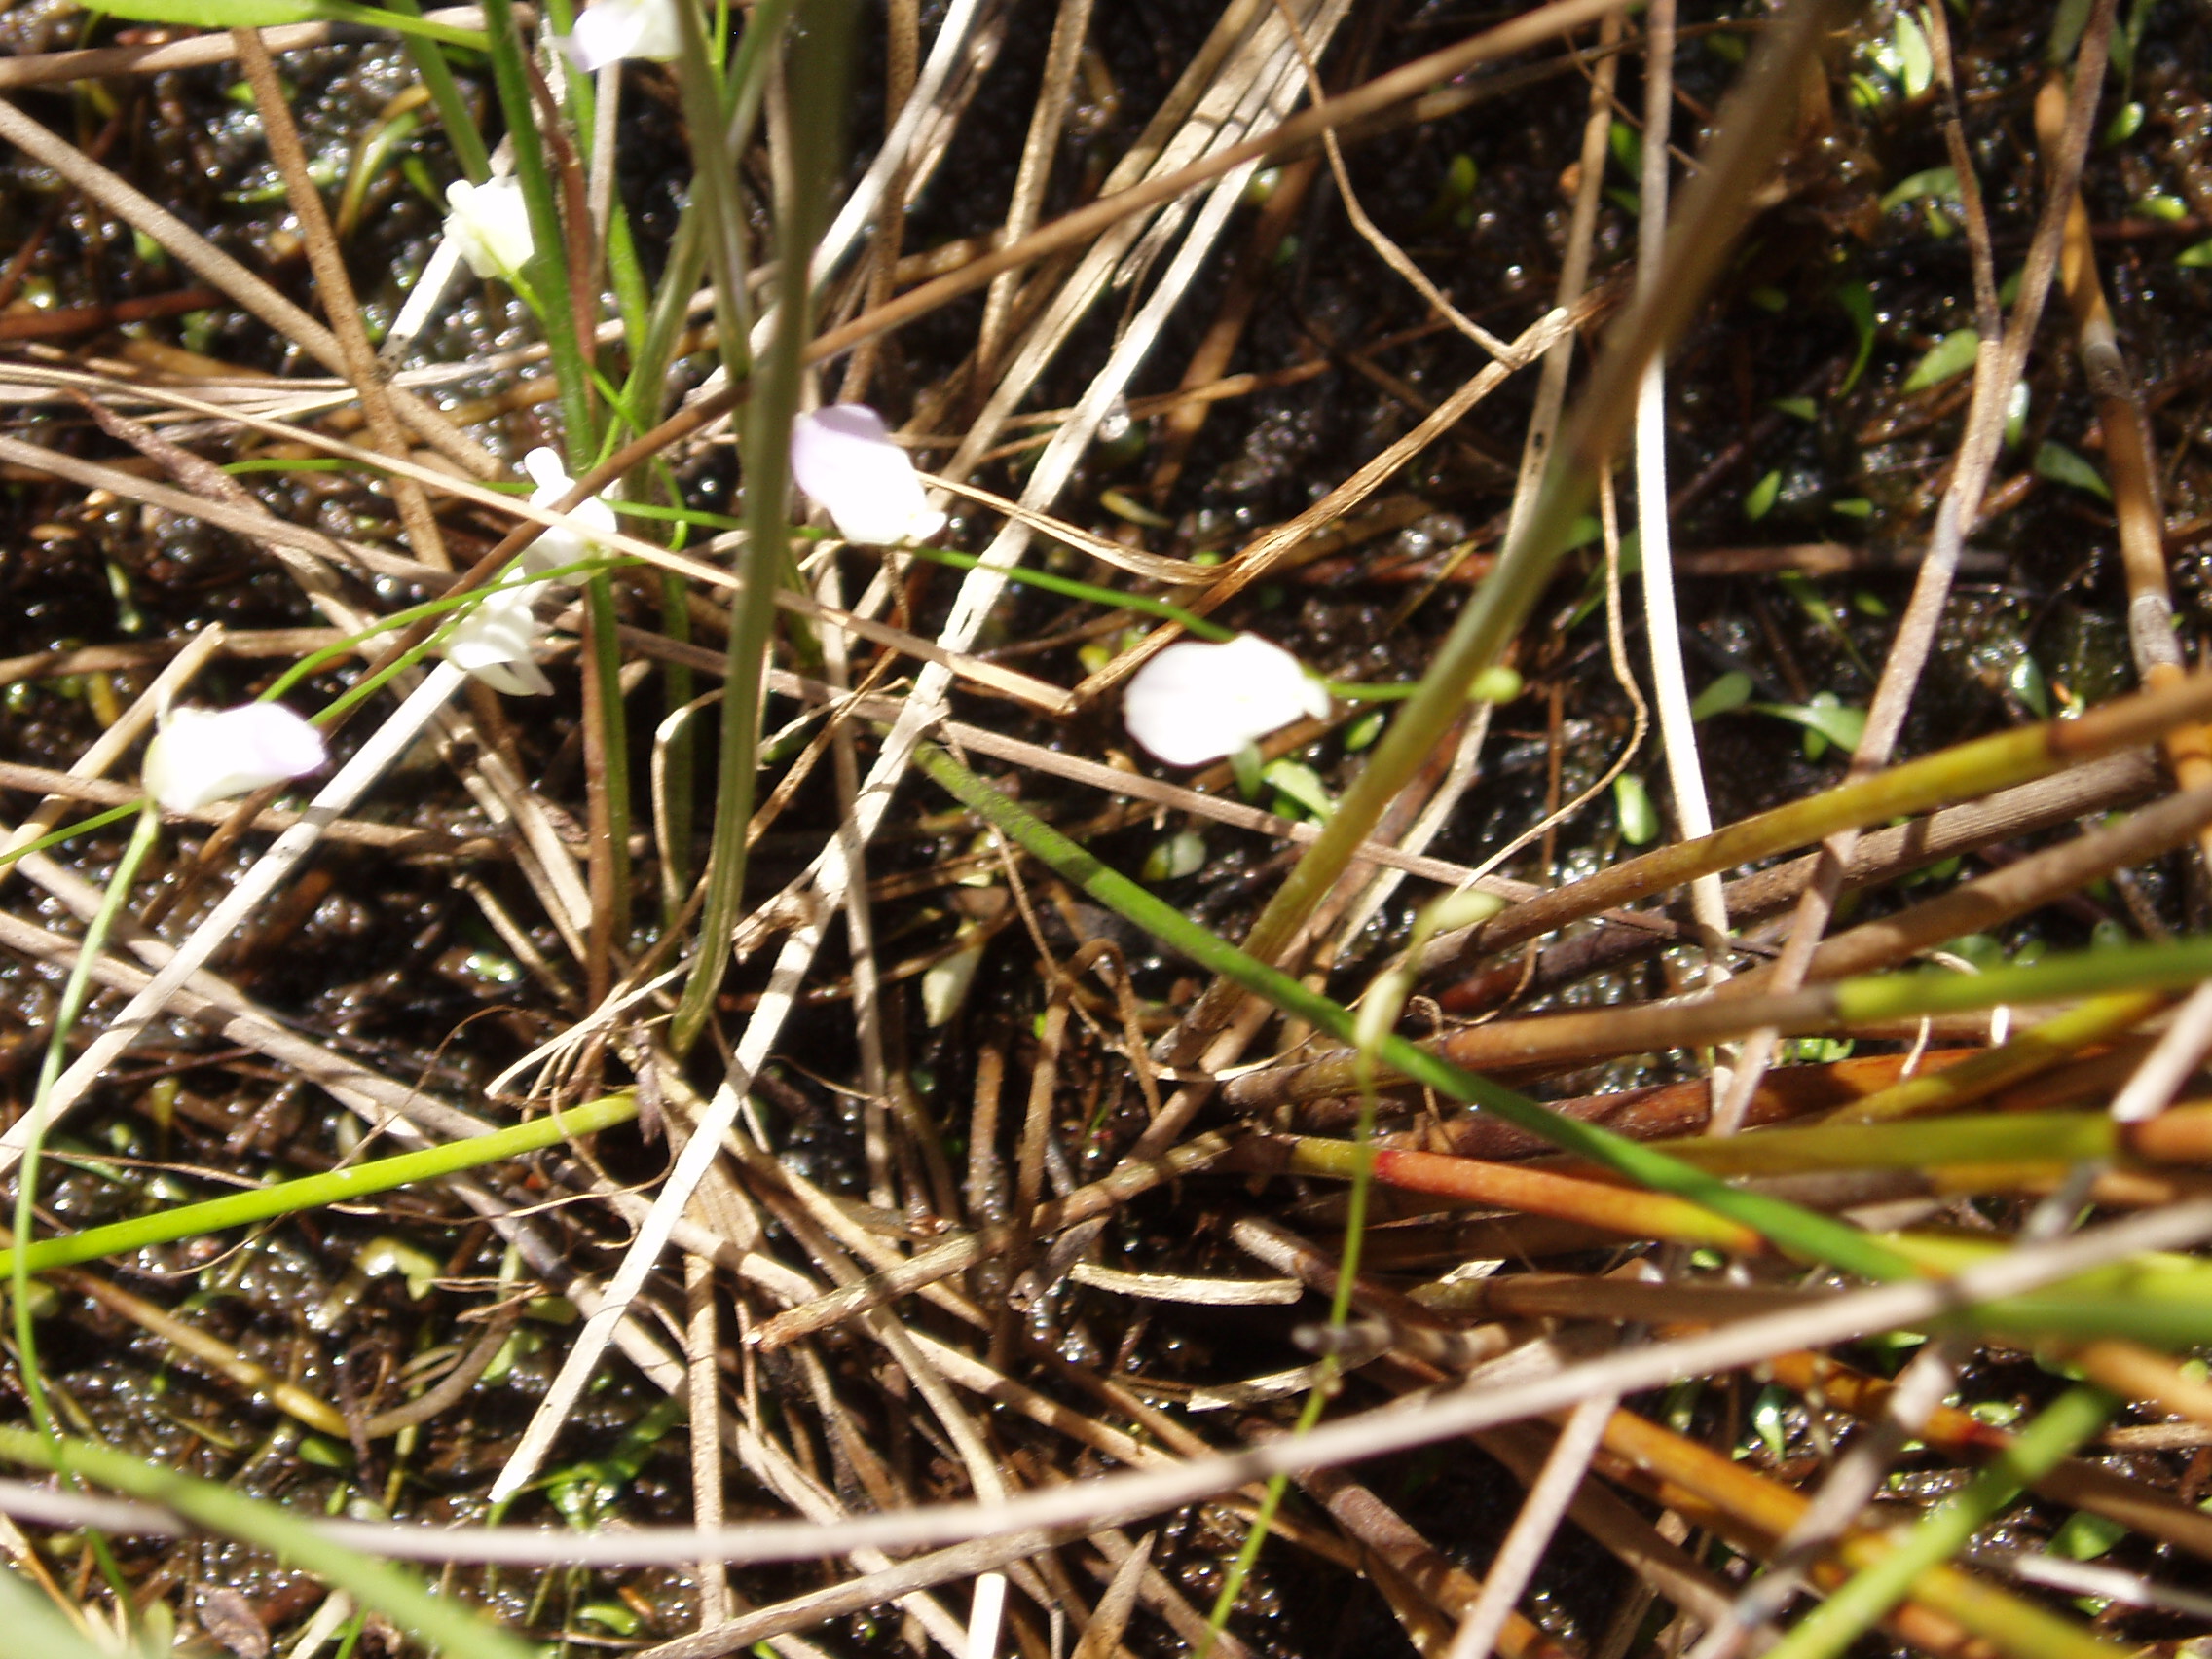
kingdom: Plantae
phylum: Tracheophyta
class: Magnoliopsida
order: Lamiales
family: Lentibulariaceae
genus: Utricularia
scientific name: Utricularia livida
